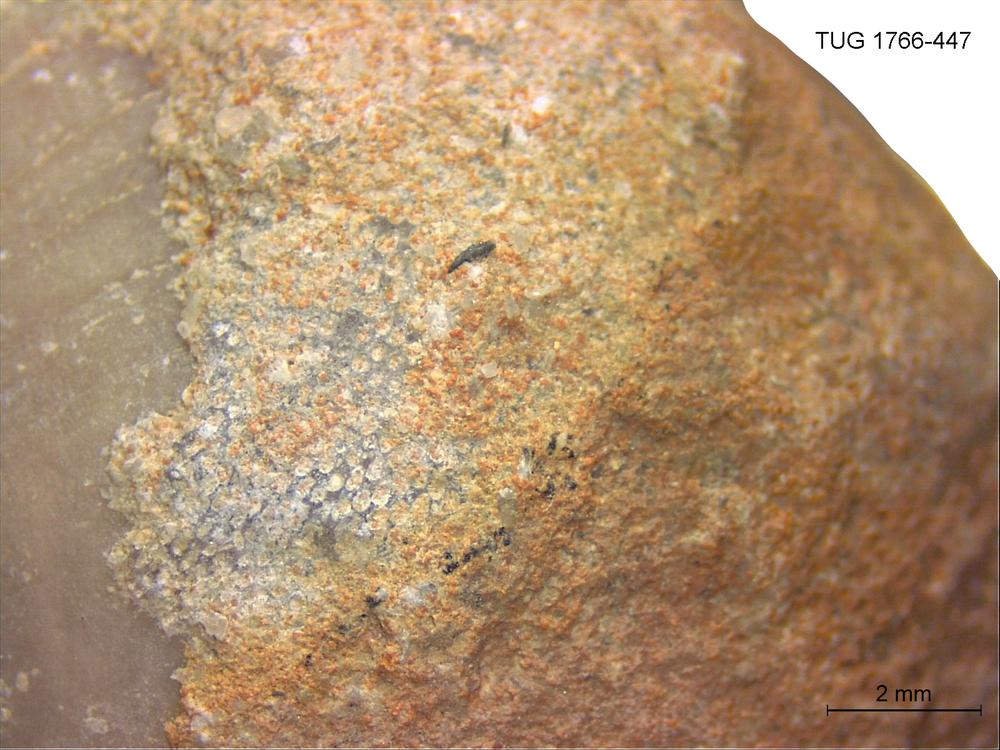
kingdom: Animalia
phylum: Bryozoa
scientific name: Bryozoa
